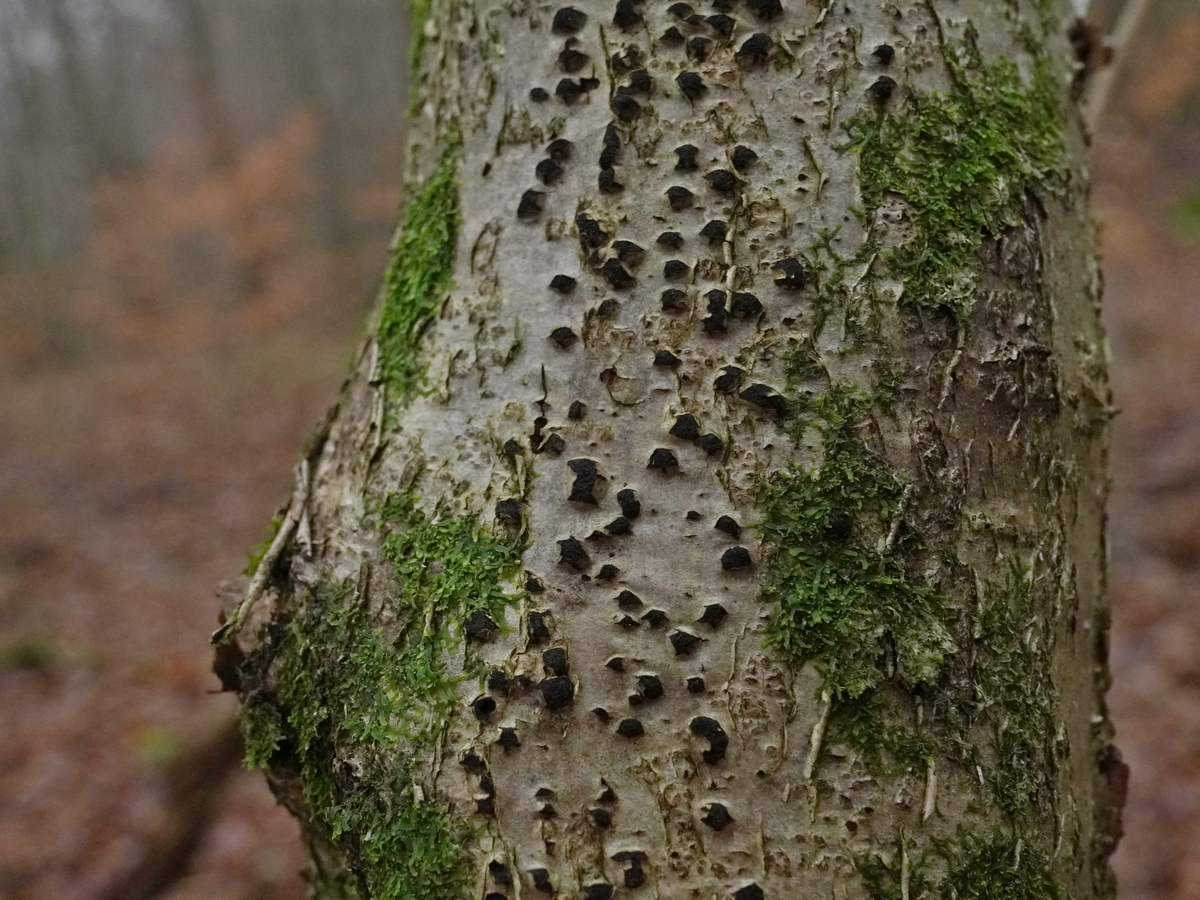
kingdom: Fungi
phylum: Ascomycota
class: Sordariomycetes
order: Xylariales
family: Diatrypaceae
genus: Diatrypella
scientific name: Diatrypella favacea
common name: klemt kulskorpe
